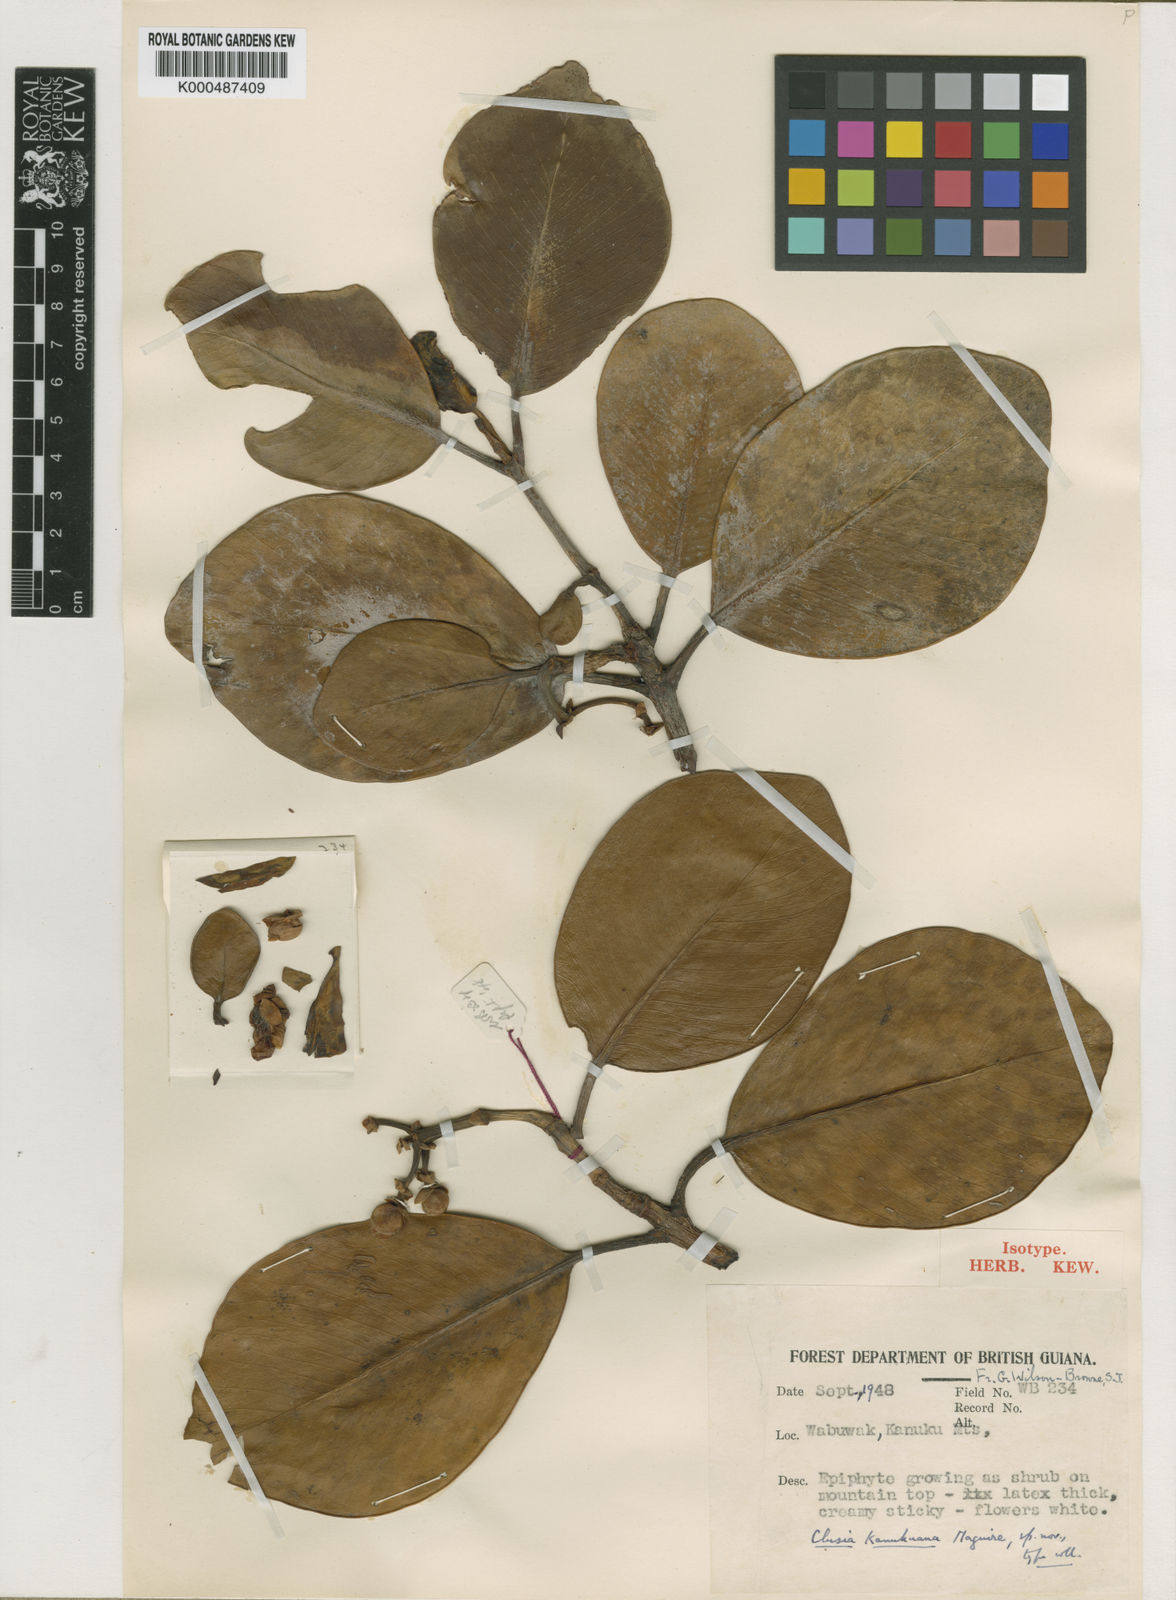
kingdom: Plantae
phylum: Tracheophyta
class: Magnoliopsida
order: Malpighiales
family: Clusiaceae
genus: Clusia
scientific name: Clusia kanukuana
